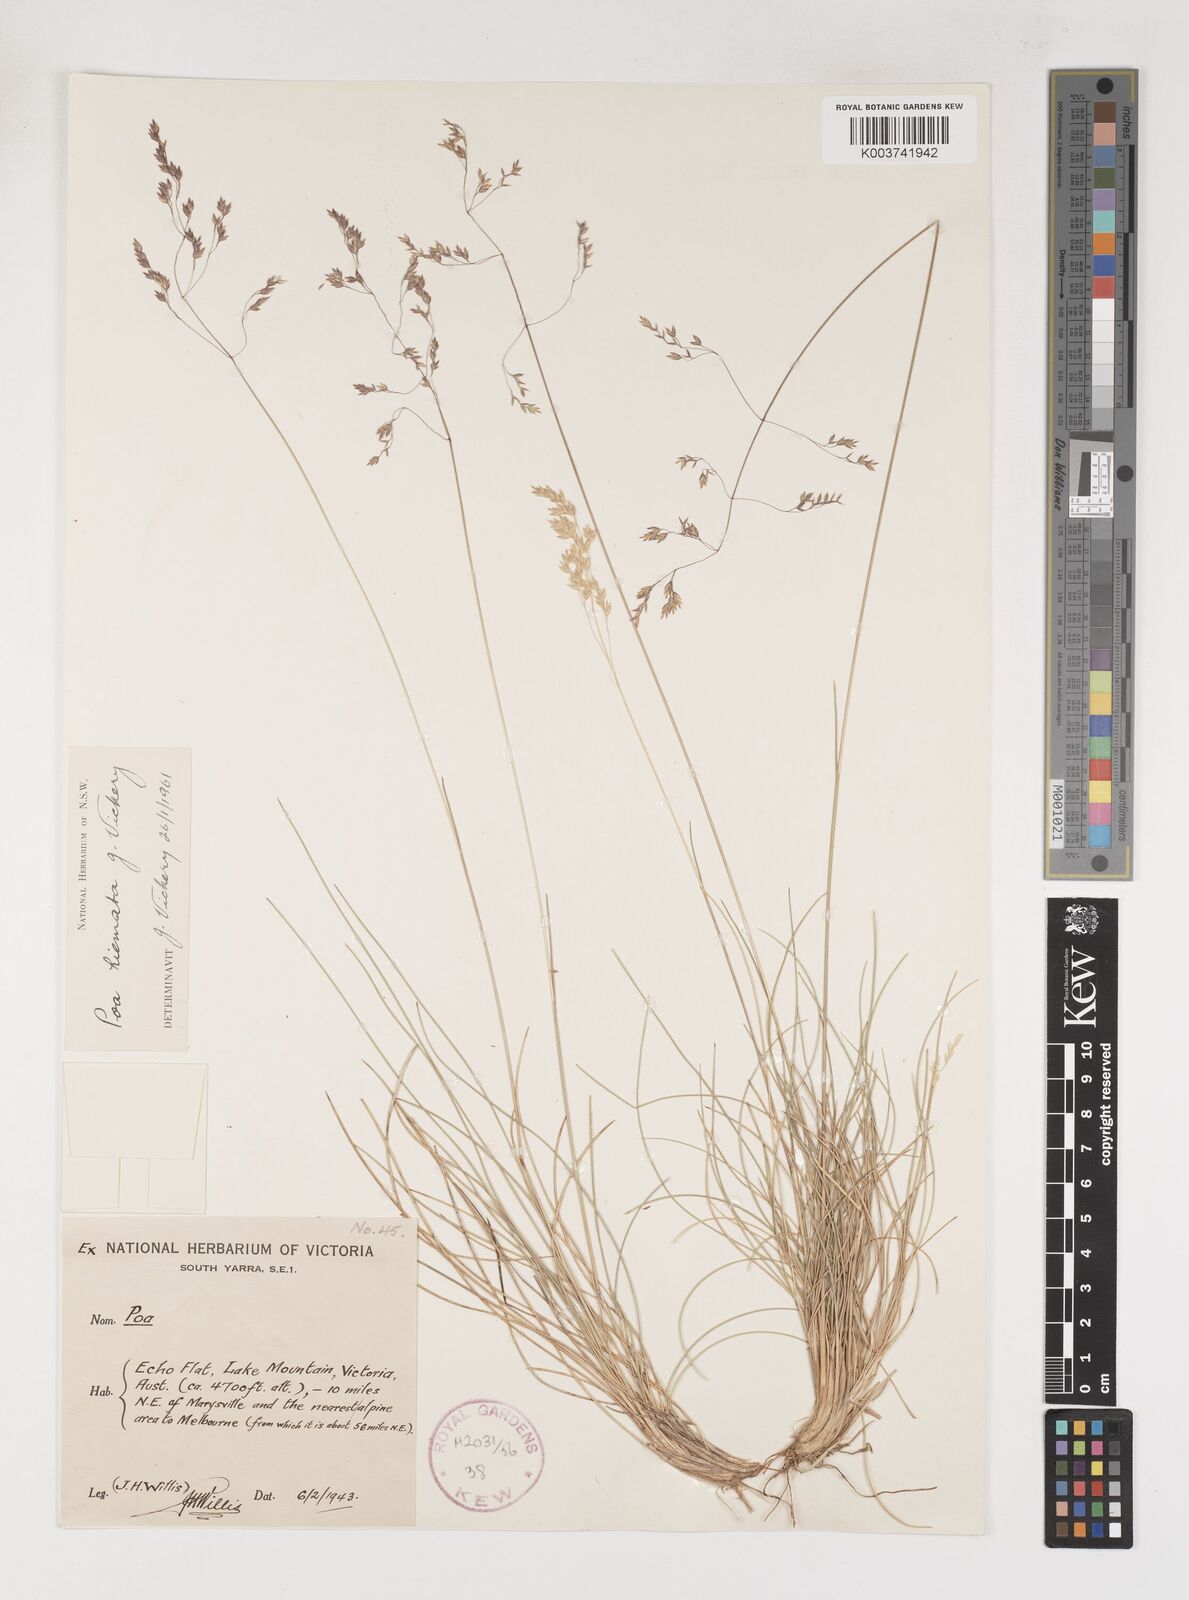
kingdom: Plantae
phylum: Tracheophyta
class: Liliopsida
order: Poales
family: Poaceae
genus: Poa
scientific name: Poa hiemata
